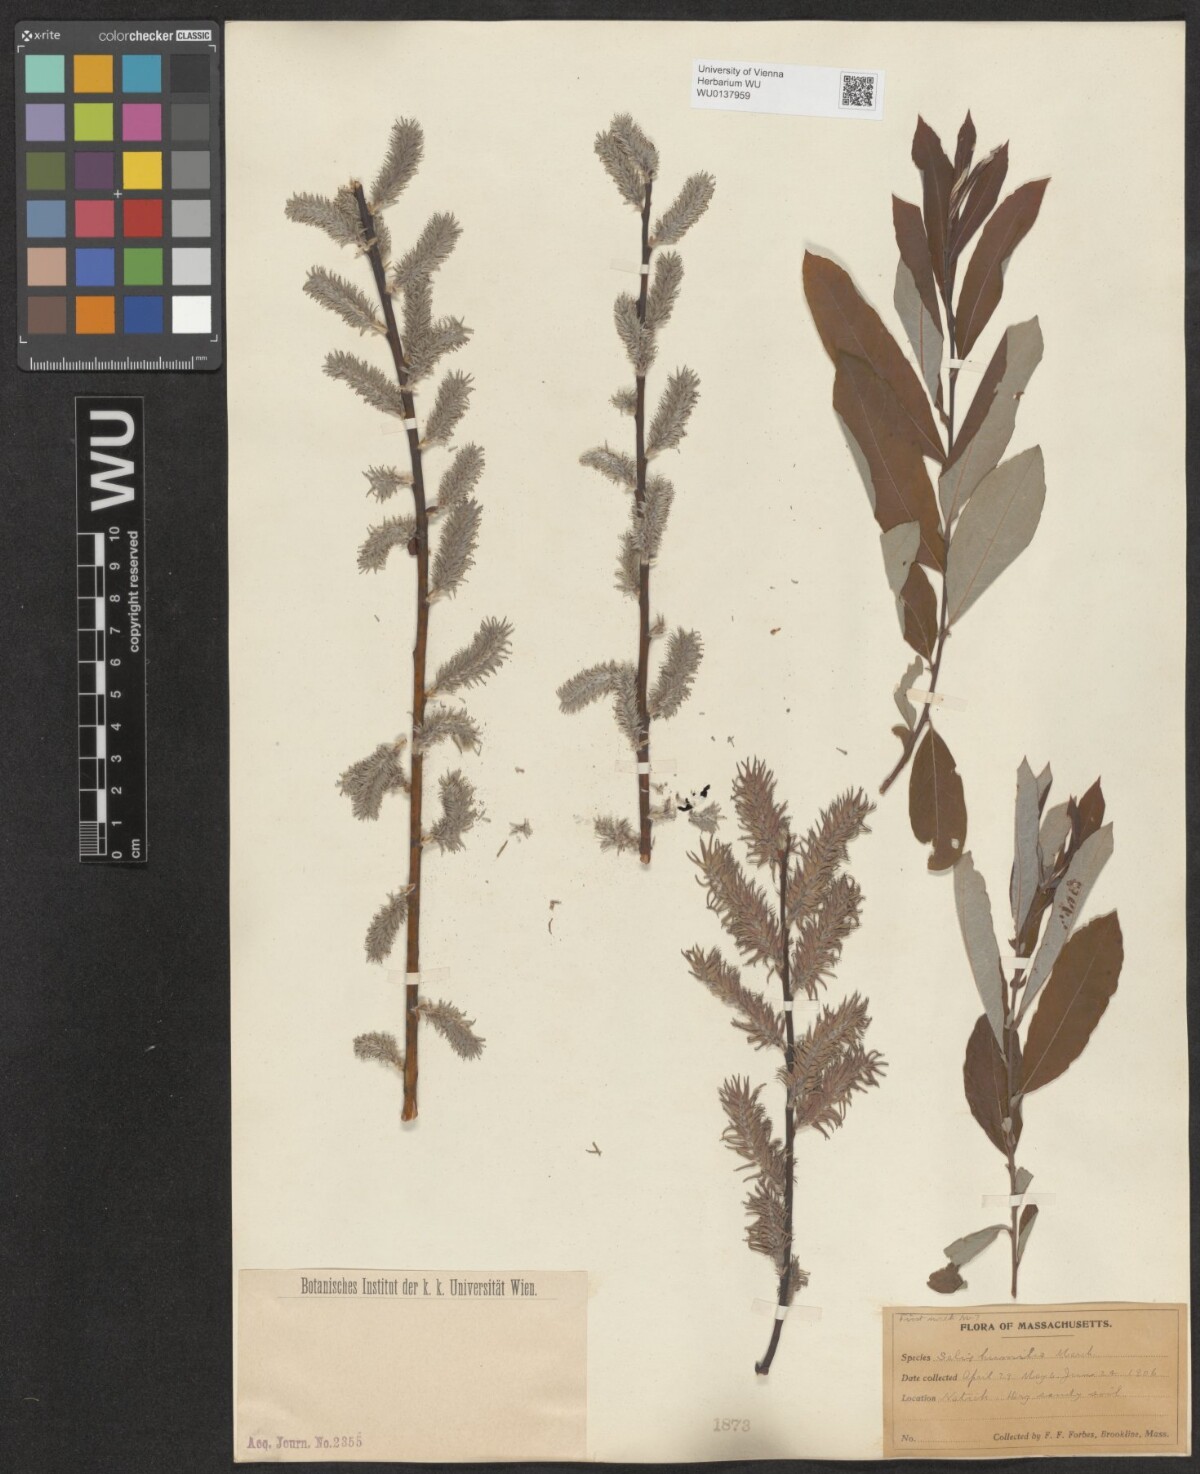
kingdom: Plantae
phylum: Tracheophyta
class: Magnoliopsida
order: Malpighiales
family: Salicaceae
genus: Salix
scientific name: Salix humilis
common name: Prairie willow
